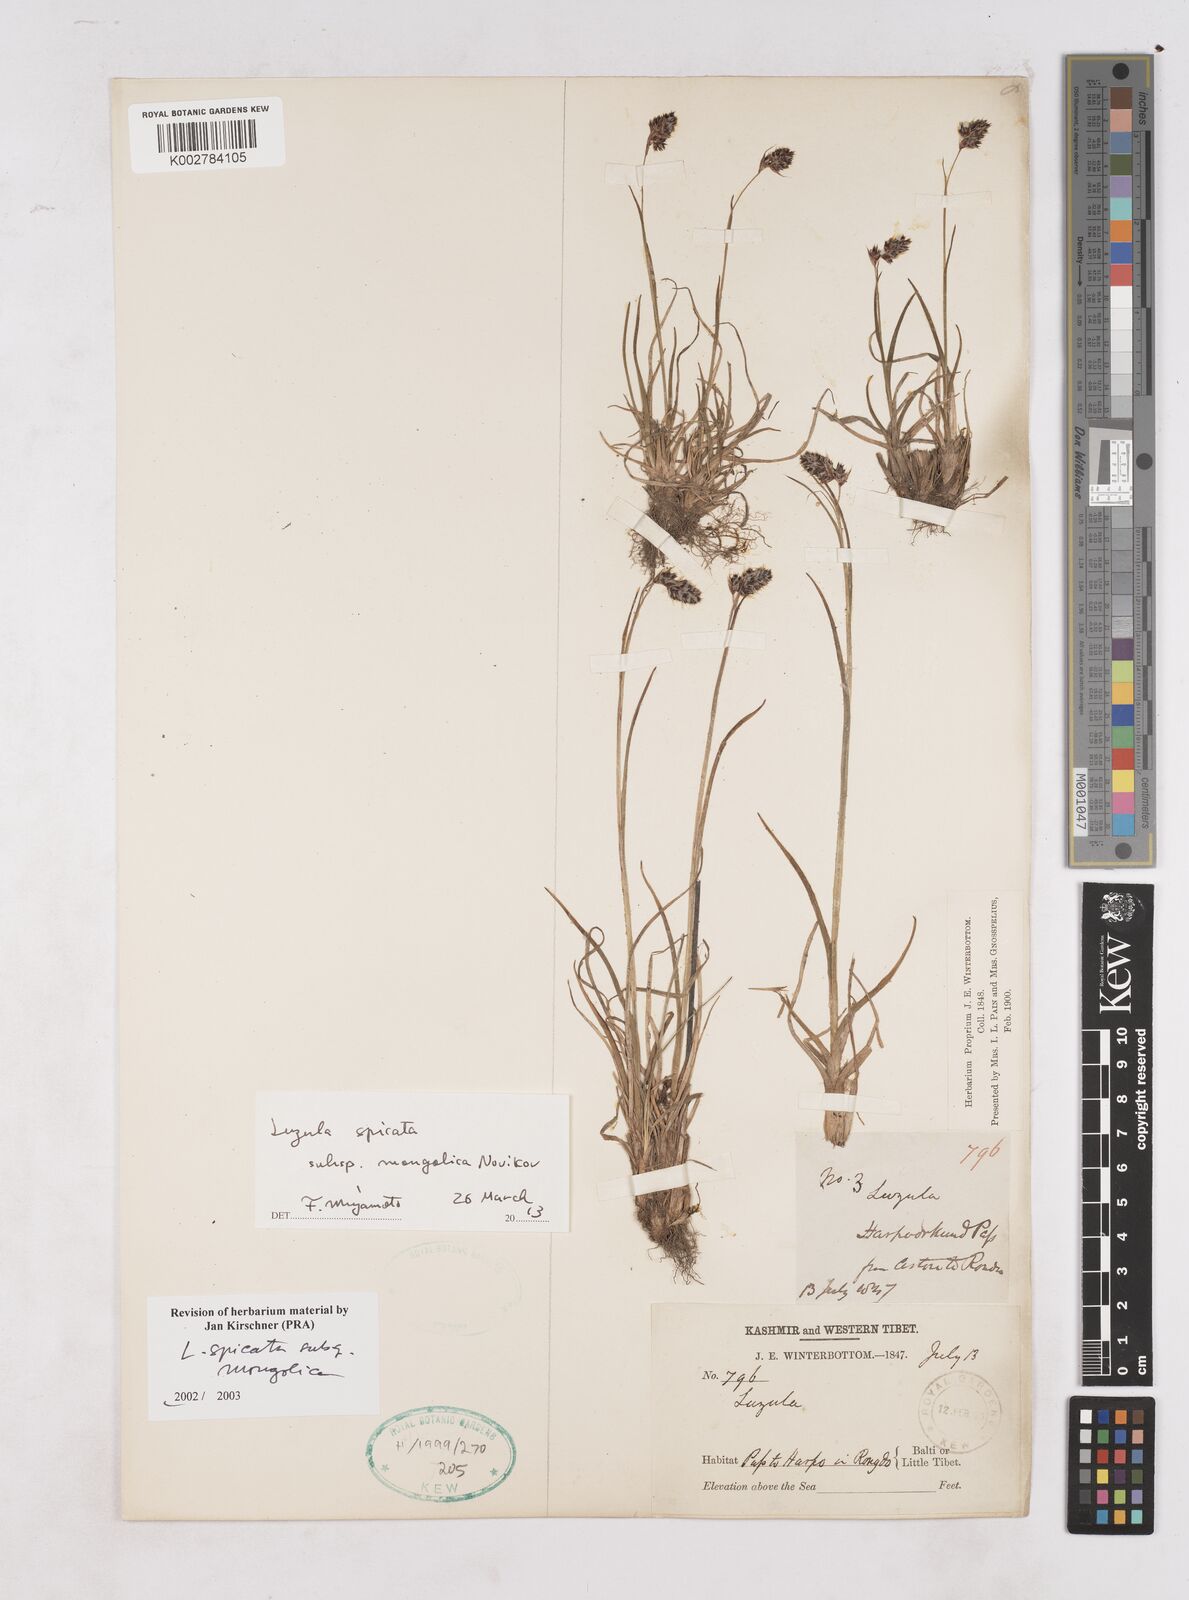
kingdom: Plantae
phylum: Tracheophyta
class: Liliopsida
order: Poales
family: Juncaceae
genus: Luzula
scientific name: Luzula spicata
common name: Spiked wood-rush
